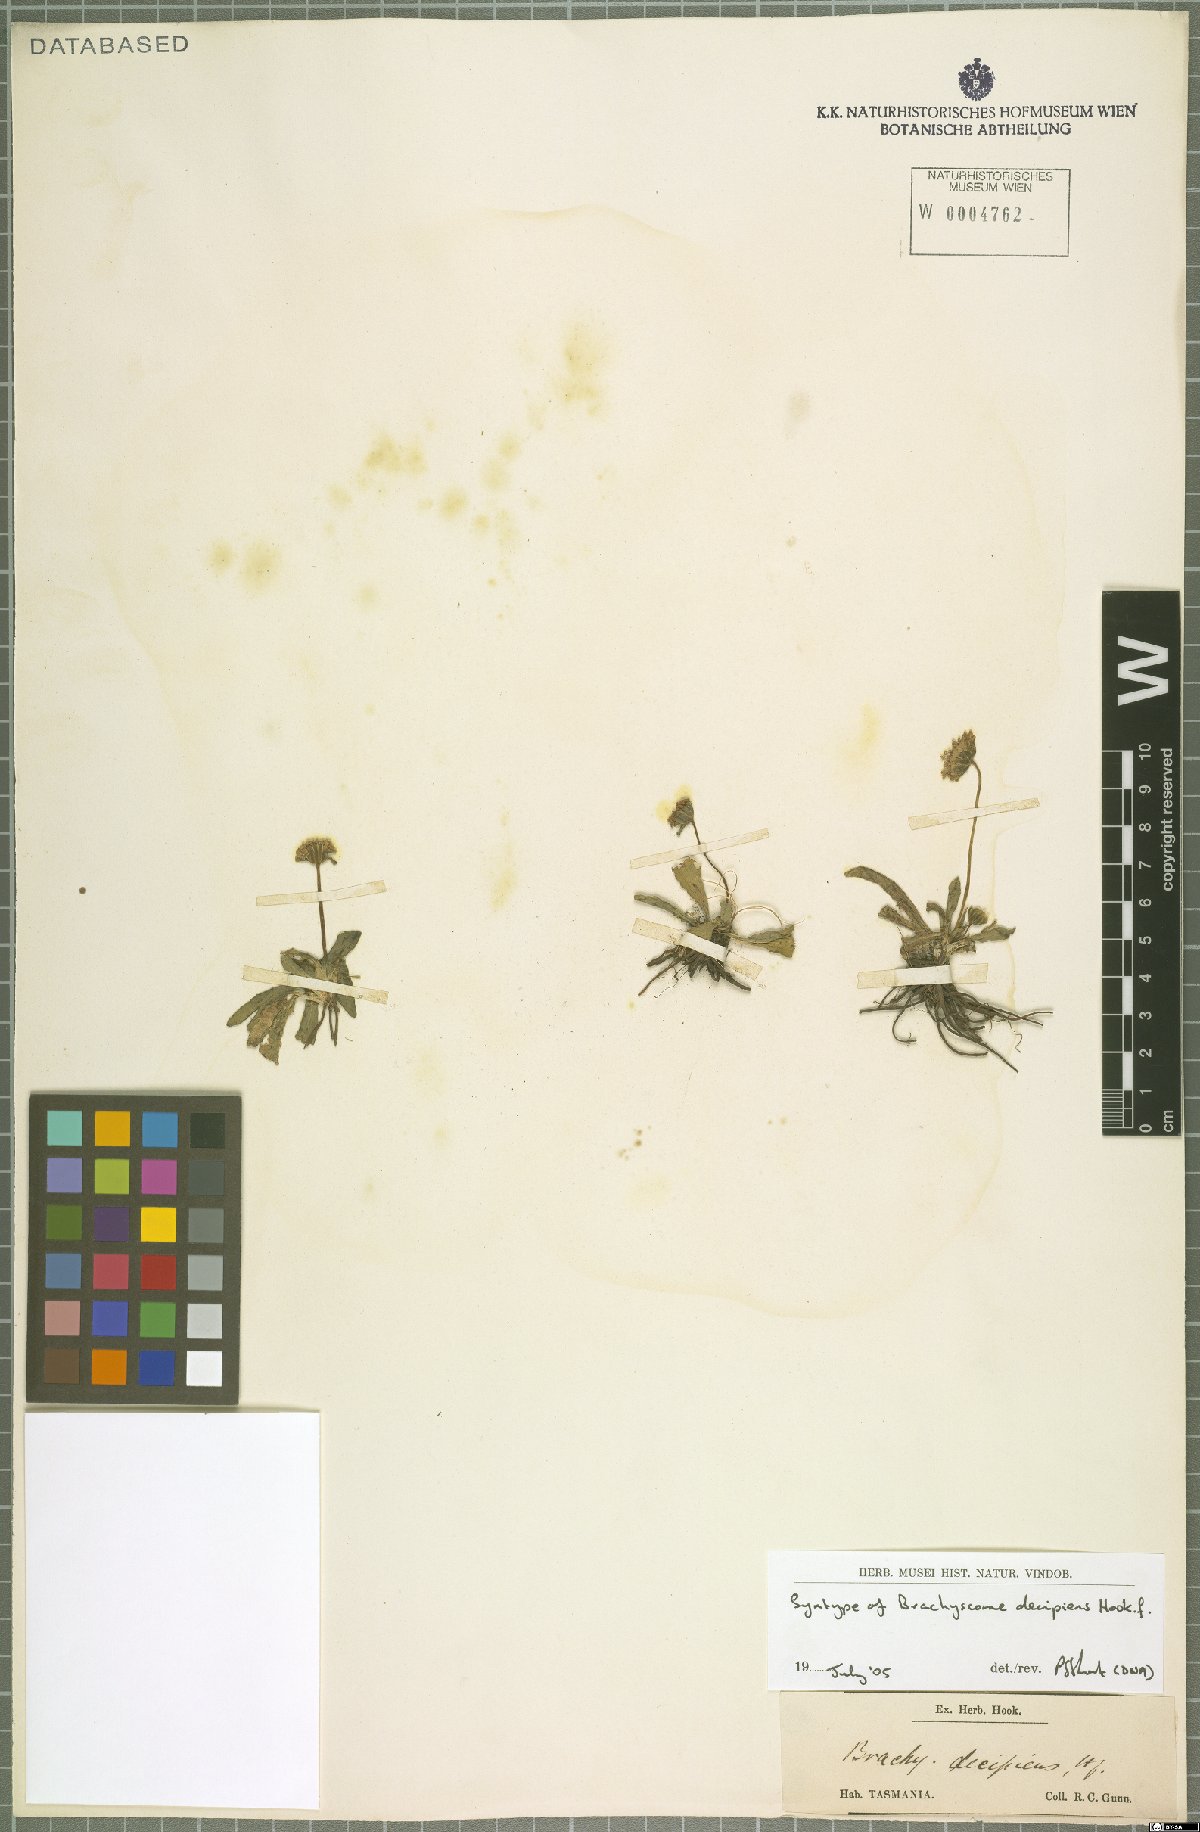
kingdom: Plantae
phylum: Tracheophyta
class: Magnoliopsida
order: Asterales
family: Asteraceae
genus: Brachyscome
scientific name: Brachyscome decipiens
